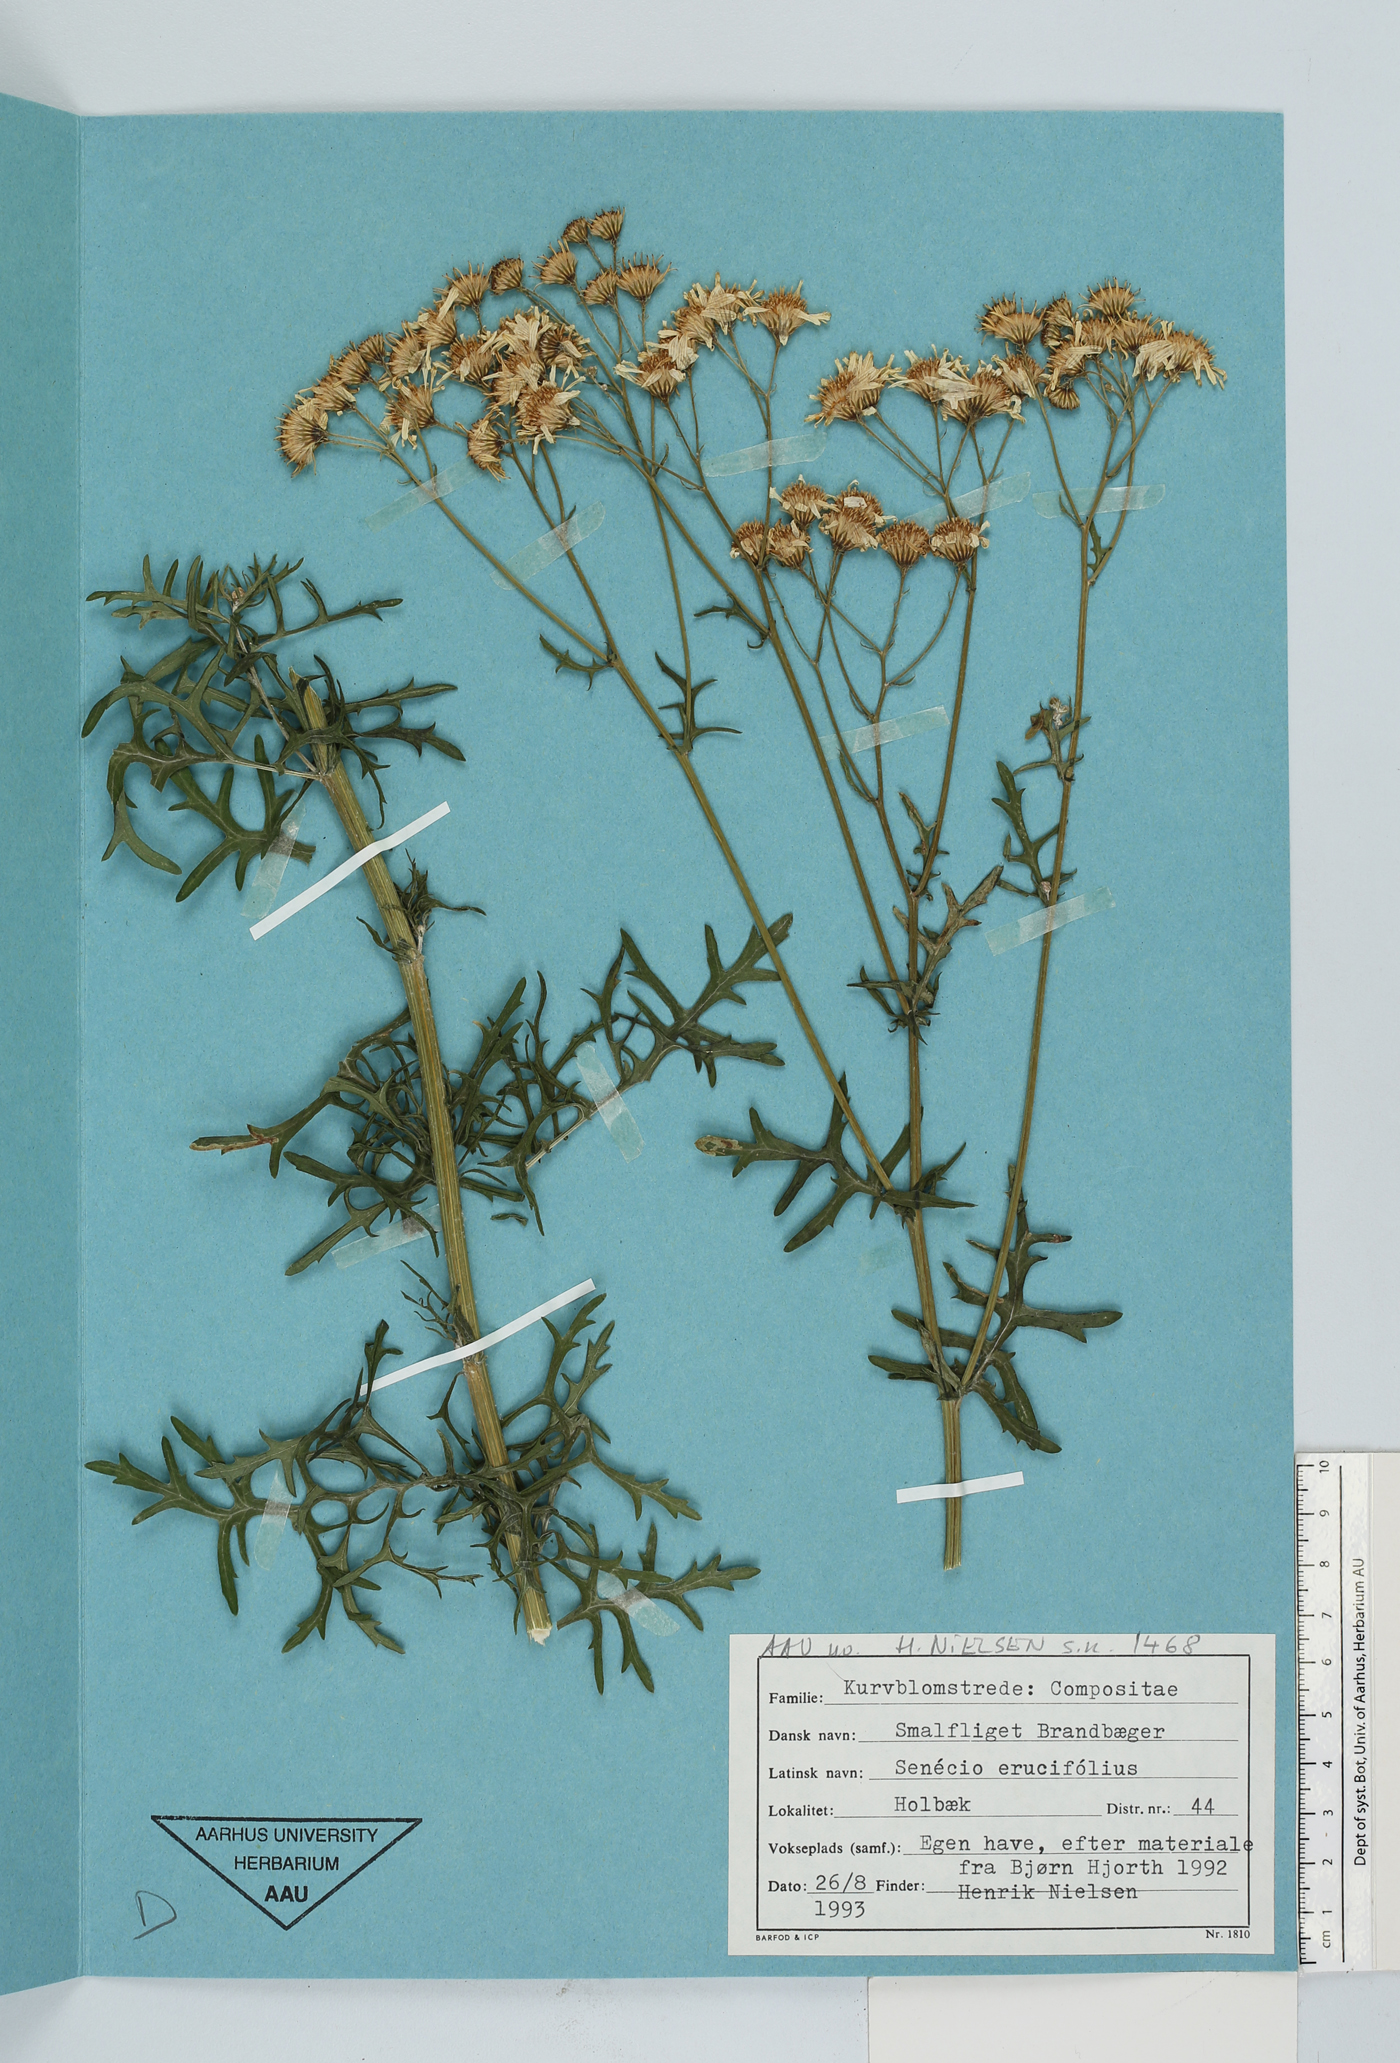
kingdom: Plantae
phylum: Tracheophyta
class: Magnoliopsida
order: Asterales
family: Asteraceae
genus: Jacobaea
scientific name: Jacobaea erucifolia
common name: Hoary ragwort
